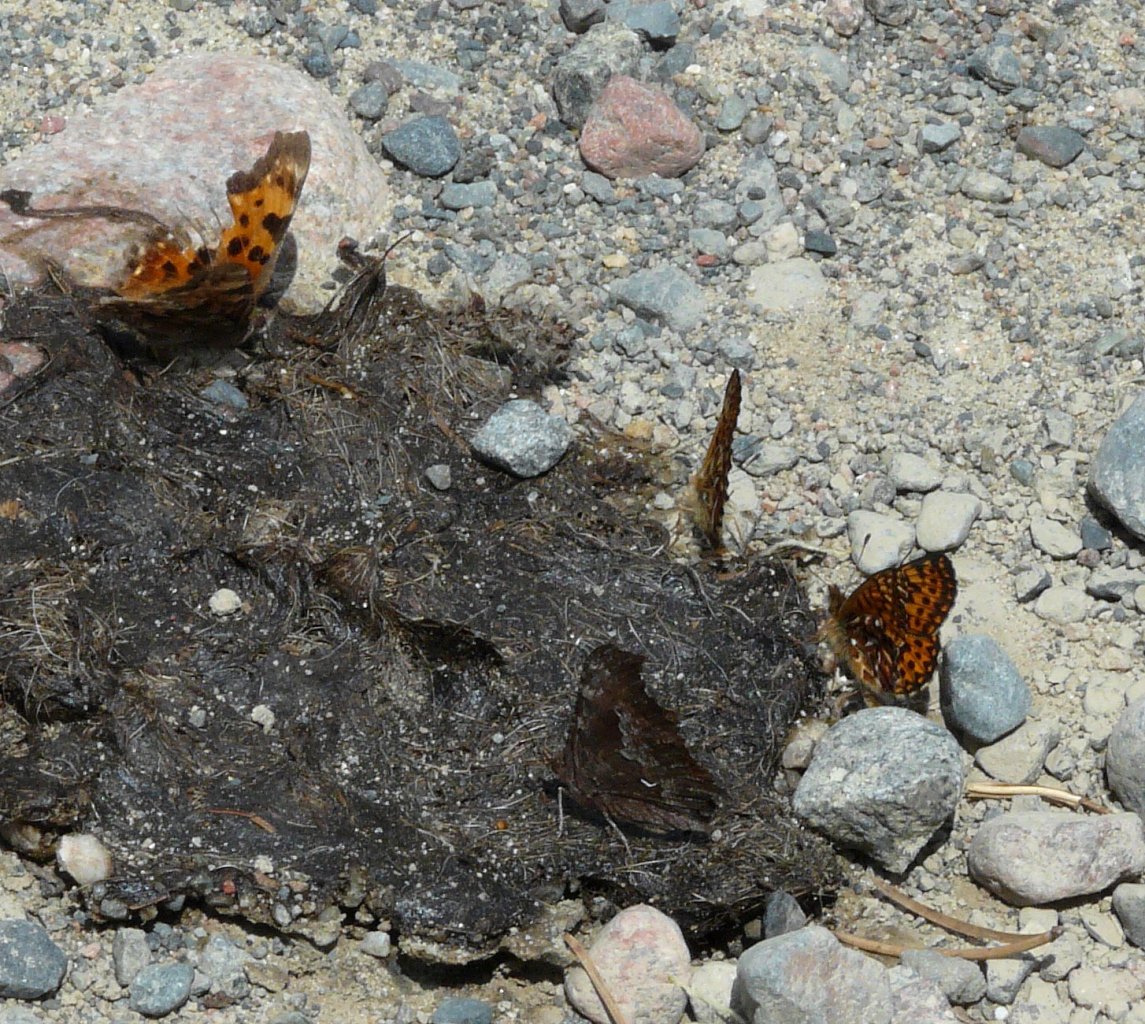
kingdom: Animalia
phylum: Arthropoda
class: Insecta
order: Lepidoptera
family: Nymphalidae
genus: Polygonia
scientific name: Polygonia faunus
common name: Green Comma
